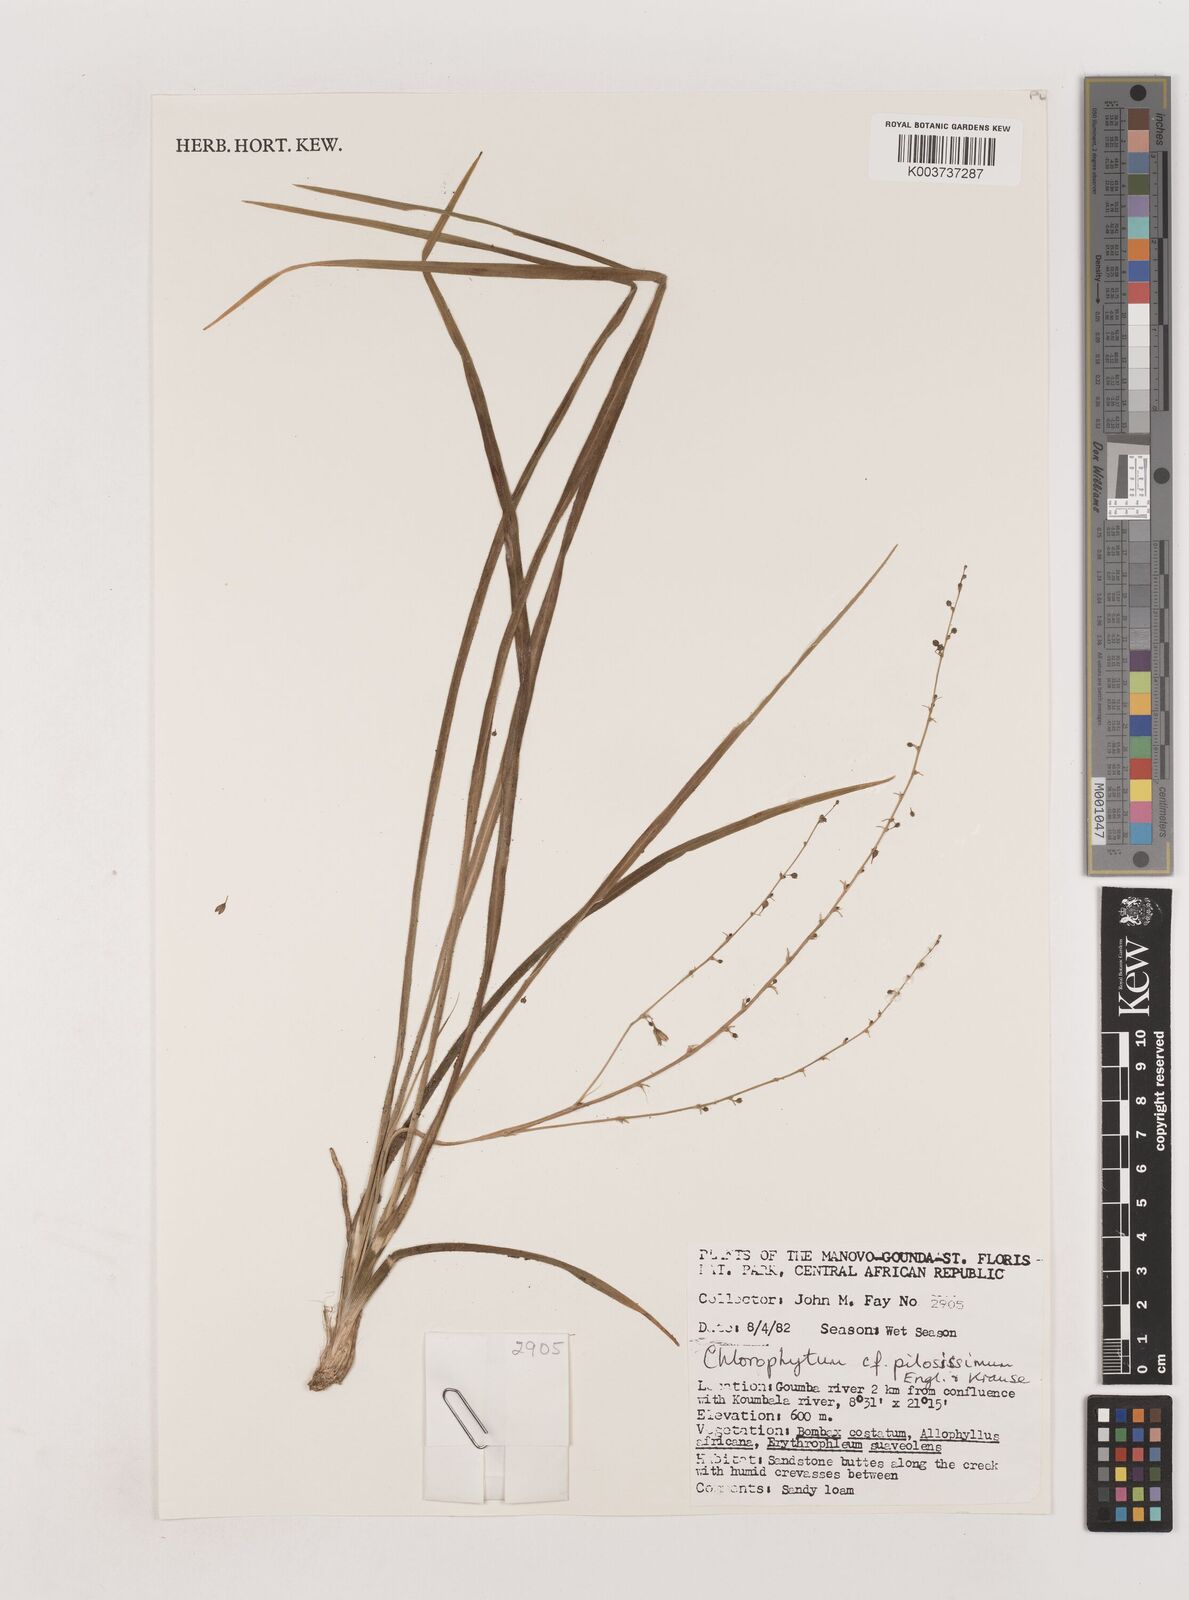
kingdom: Plantae
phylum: Tracheophyta
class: Liliopsida
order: Asparagales
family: Asparagaceae
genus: Chlorophytum
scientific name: Chlorophytum vestitum
